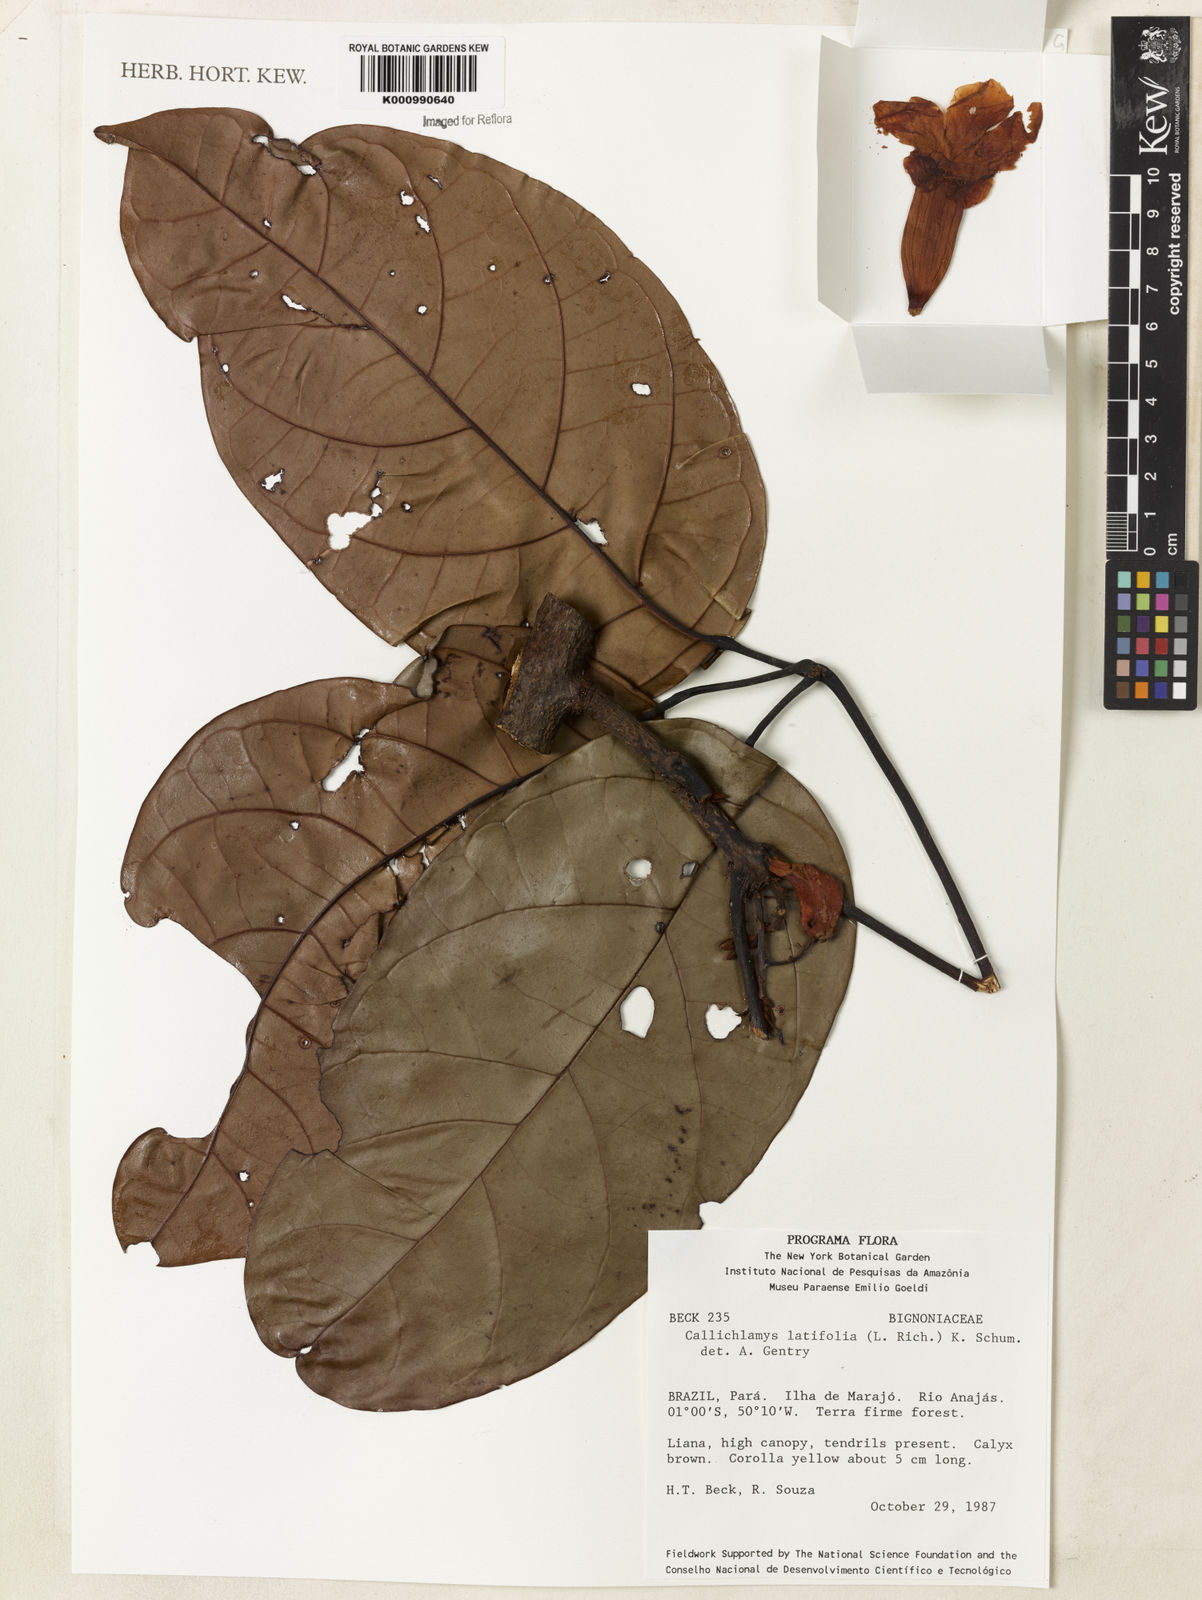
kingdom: Plantae
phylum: Tracheophyta
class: Magnoliopsida
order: Lamiales
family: Bignoniaceae
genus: Callichlamys
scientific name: Callichlamys latifolia
